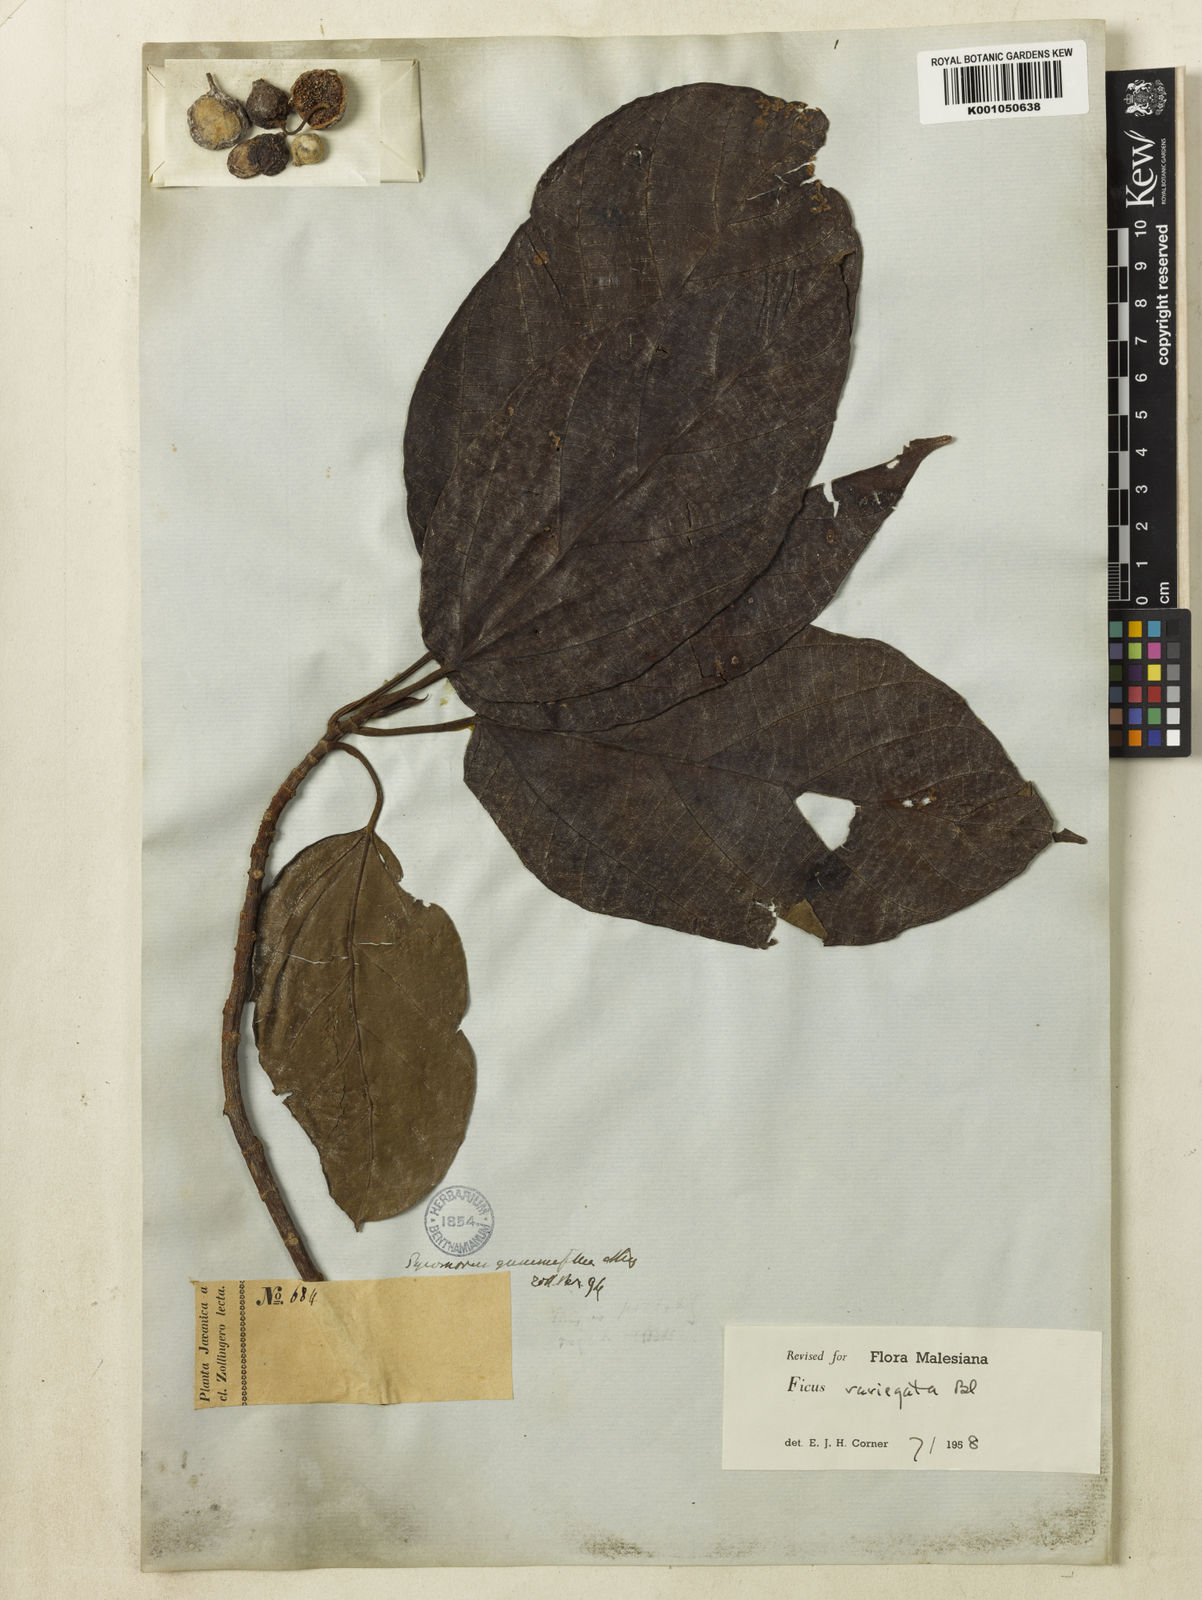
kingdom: Plantae
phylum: Tracheophyta
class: Magnoliopsida
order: Rosales
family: Moraceae
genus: Ficus
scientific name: Ficus variegata
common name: Variegated fig
